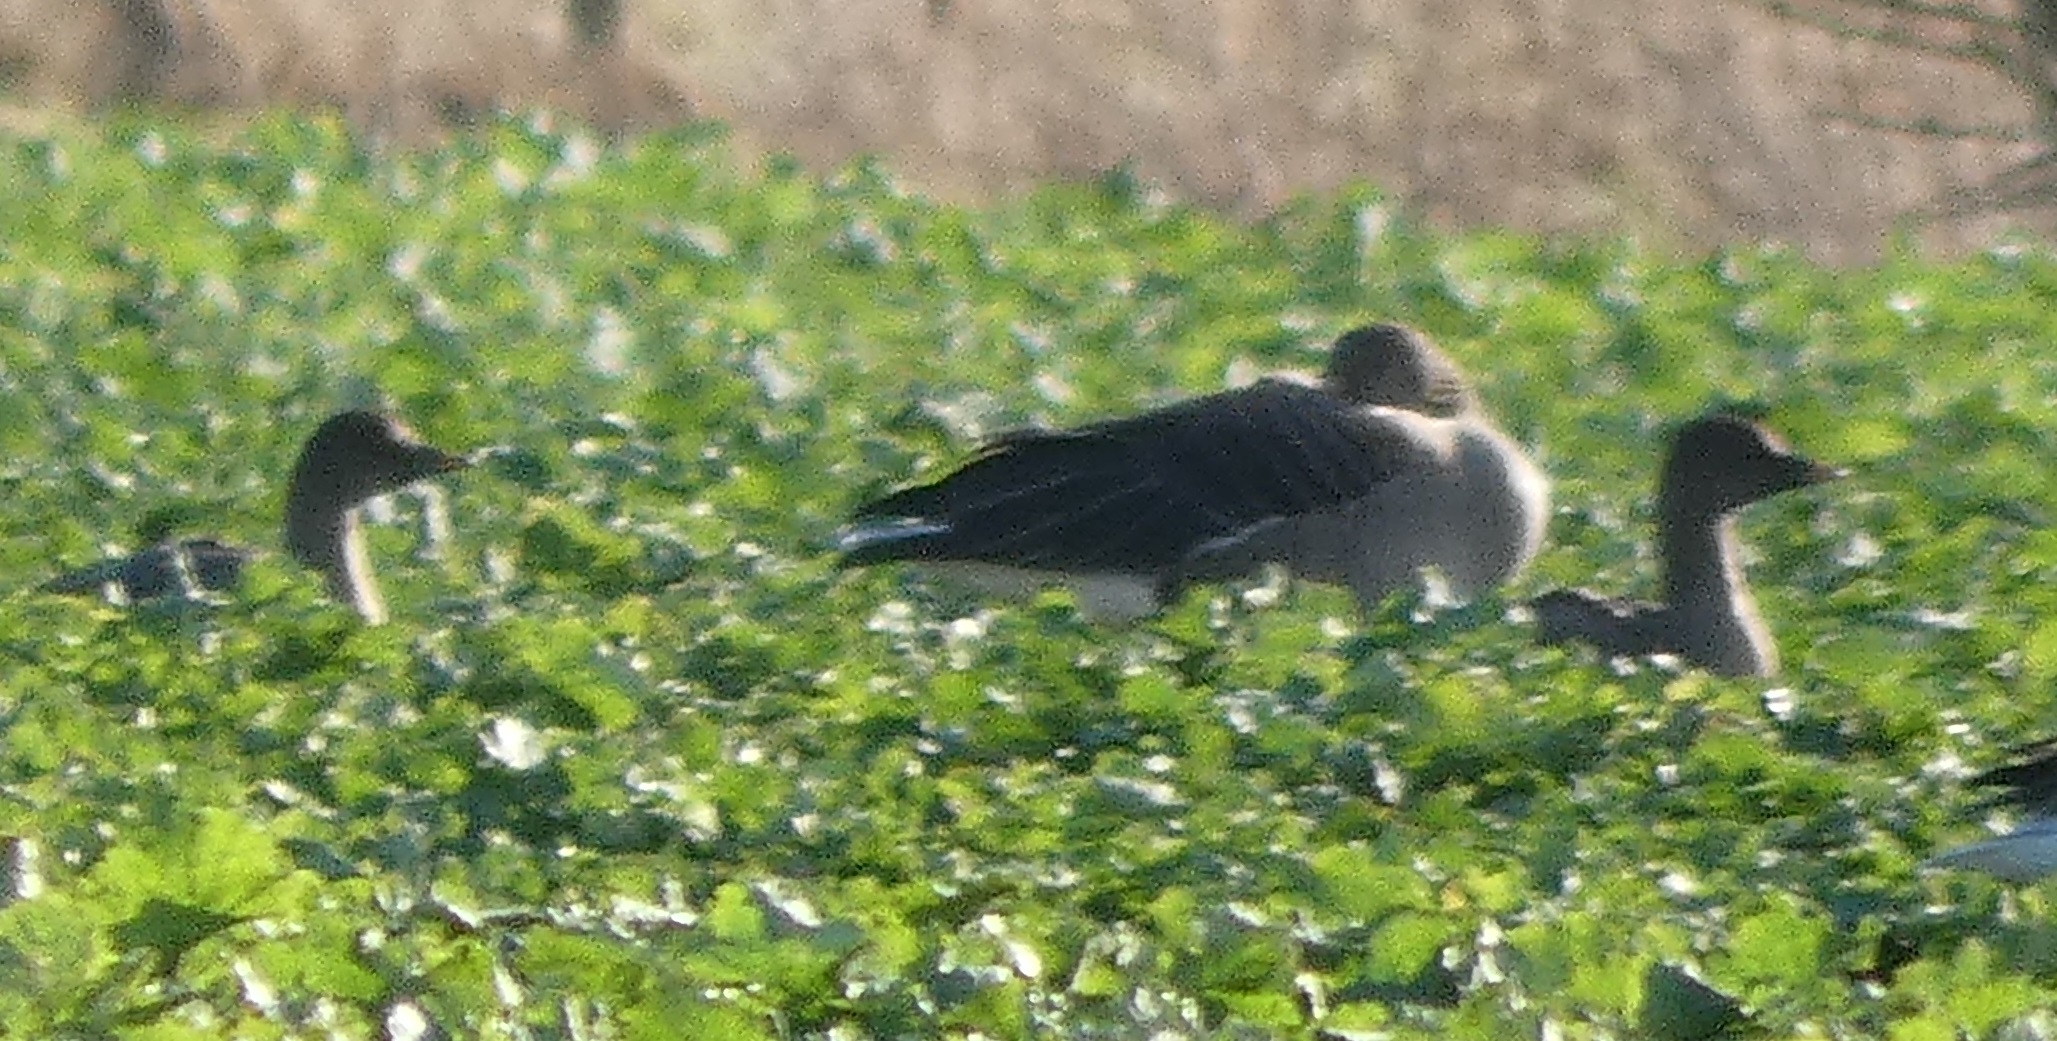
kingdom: Animalia
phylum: Chordata
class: Aves
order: Anseriformes
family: Anatidae
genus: Anser
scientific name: Anser fabalis
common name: Tajgasædgås
